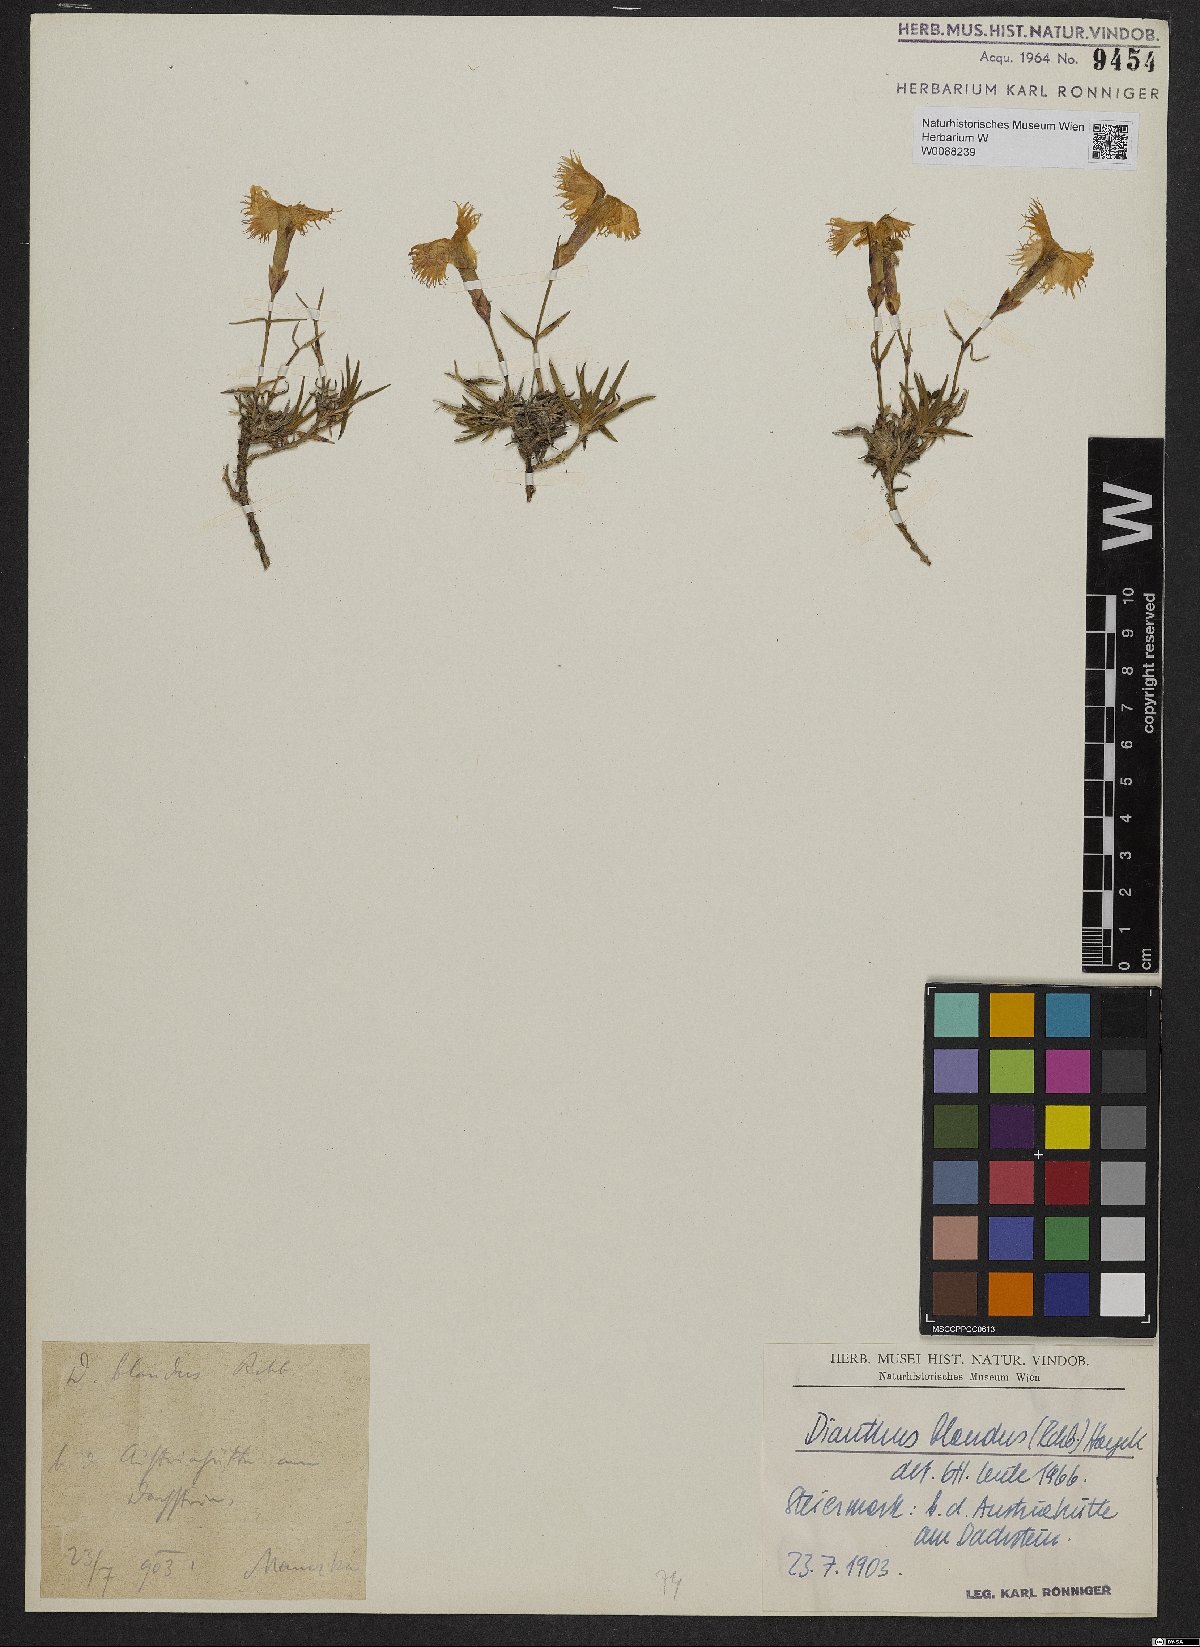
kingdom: Plantae
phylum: Tracheophyta
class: Magnoliopsida
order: Caryophyllales
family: Caryophyllaceae
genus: Dianthus
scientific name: Dianthus plumarius
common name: Pink
